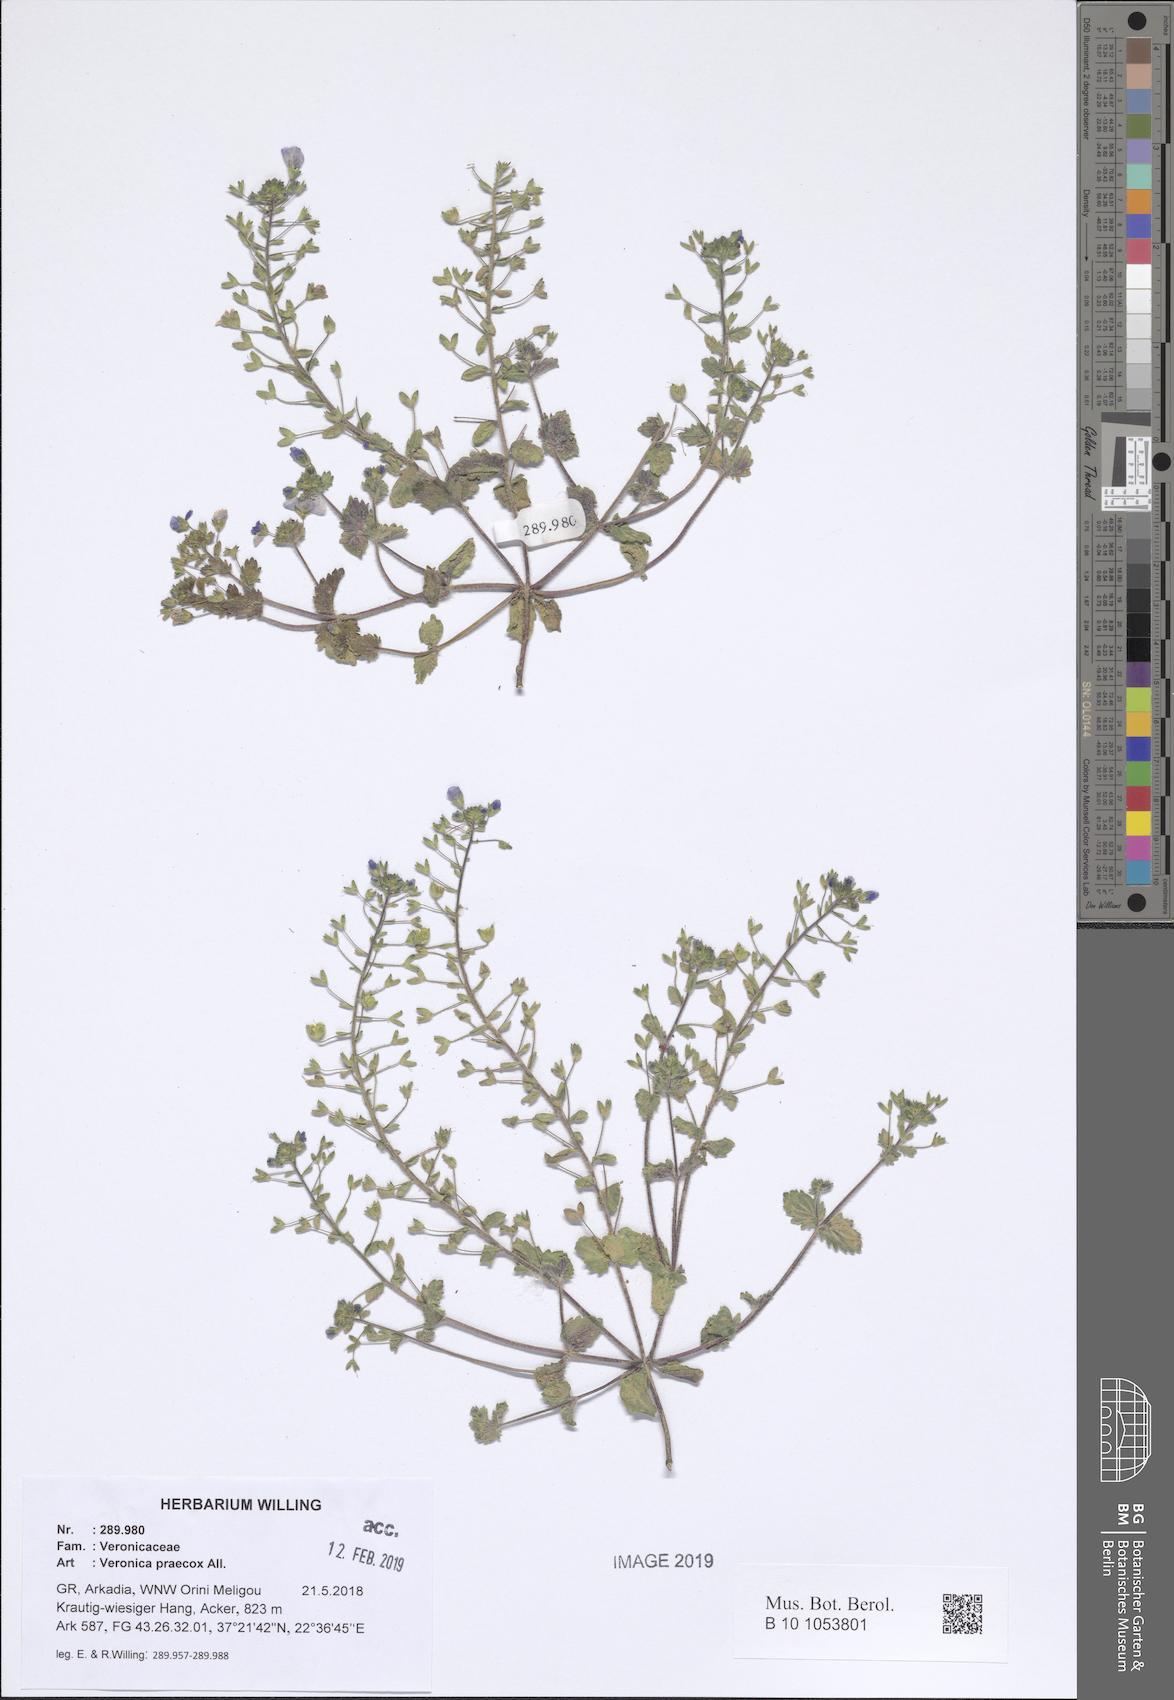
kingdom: Plantae
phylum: Tracheophyta
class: Magnoliopsida
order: Lamiales
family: Plantaginaceae
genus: Veronica
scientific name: Veronica praecox
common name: Breckland speedwell
